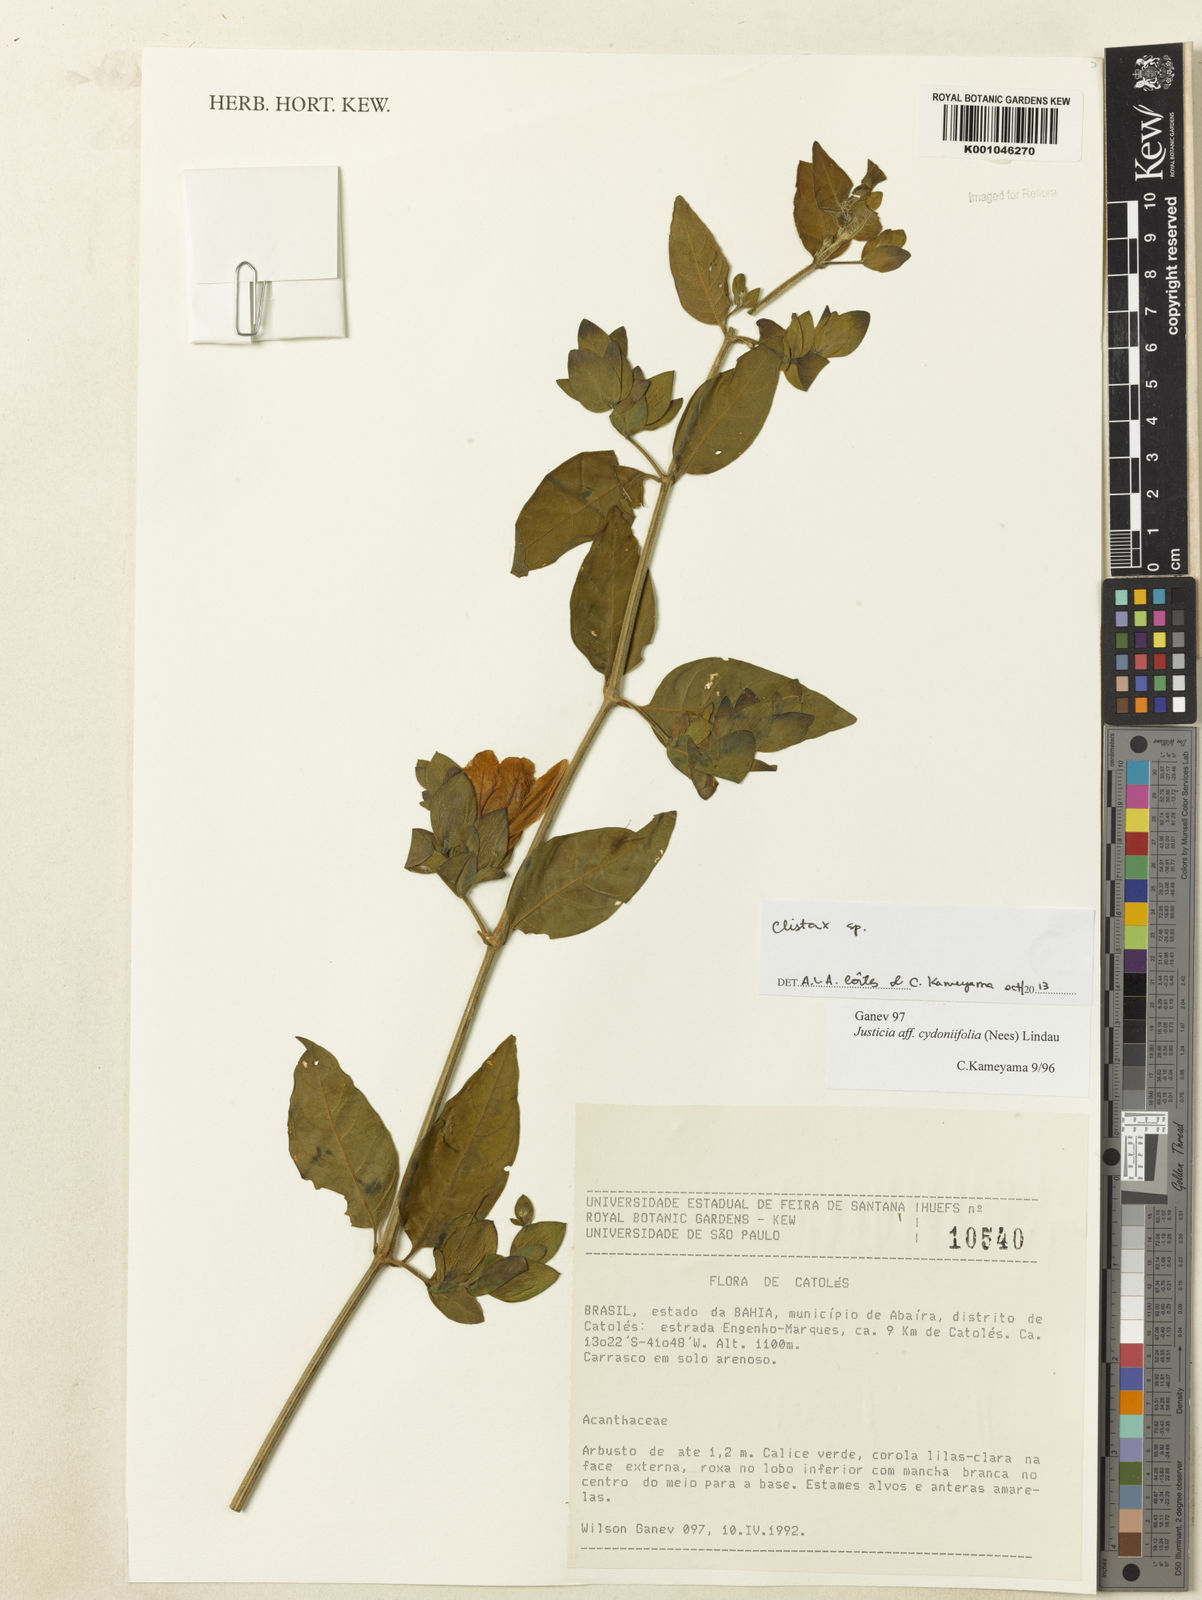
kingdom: Plantae
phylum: Tracheophyta
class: Magnoliopsida
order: Lamiales
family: Acanthaceae
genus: Clistax
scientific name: Clistax brasiliensis
